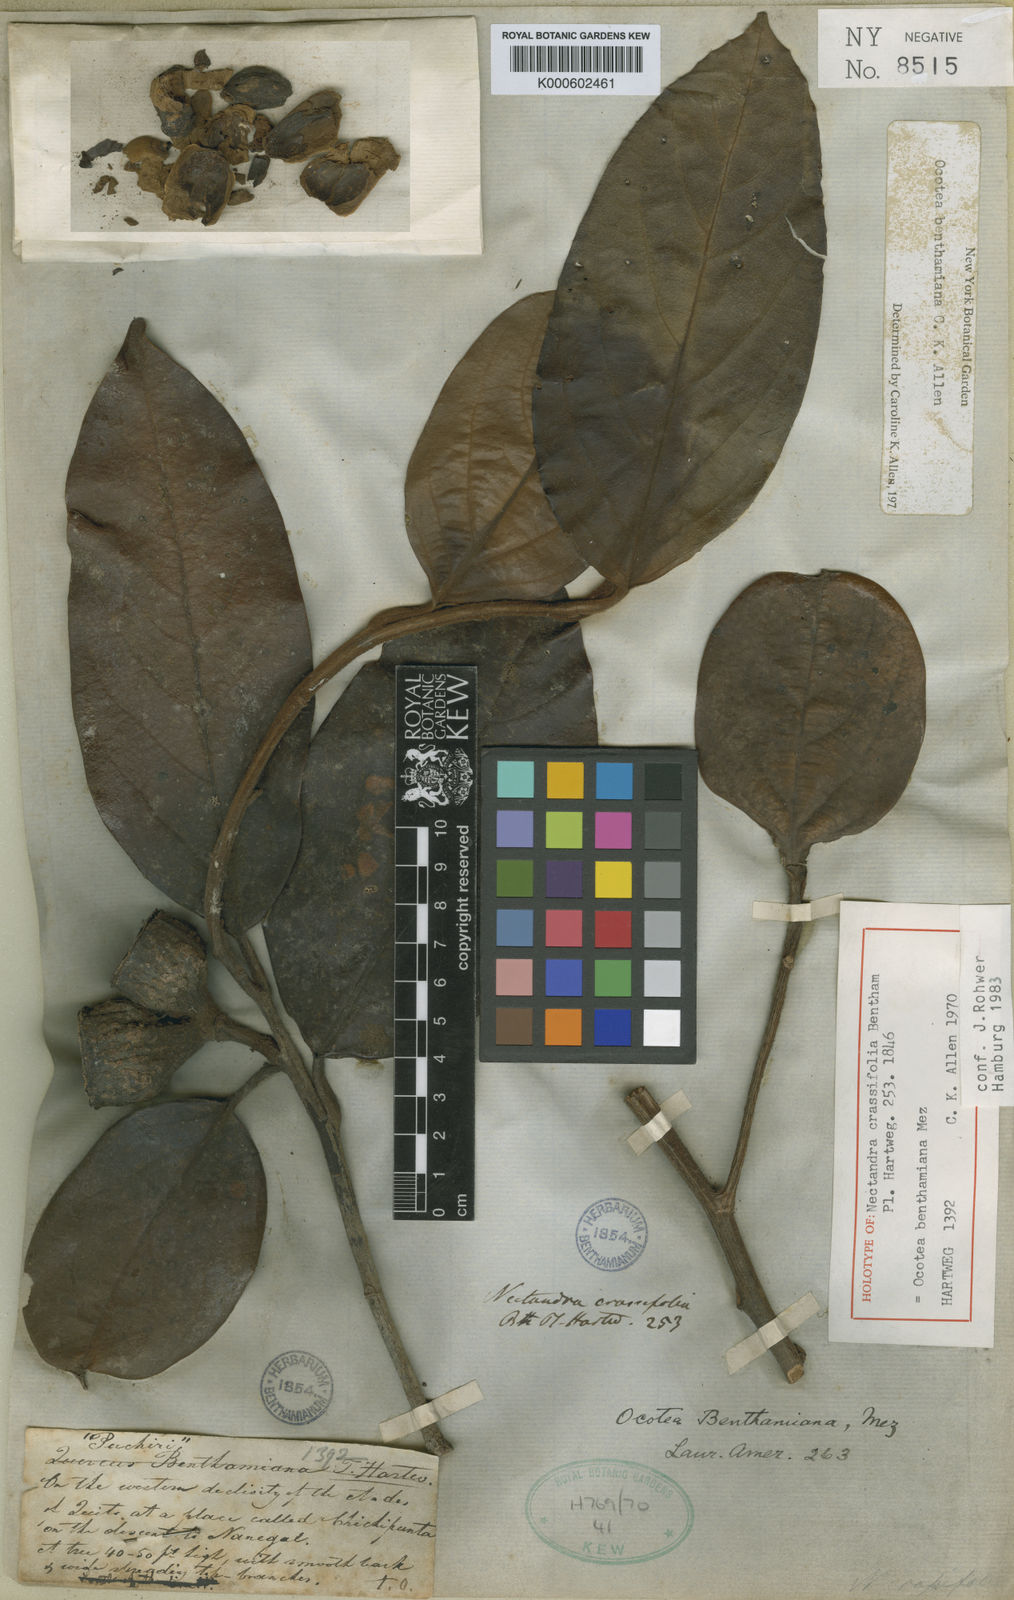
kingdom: Plantae
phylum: Tracheophyta
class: Magnoliopsida
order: Laurales
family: Lauraceae
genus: Ocotea
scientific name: Ocotea benthamiana
